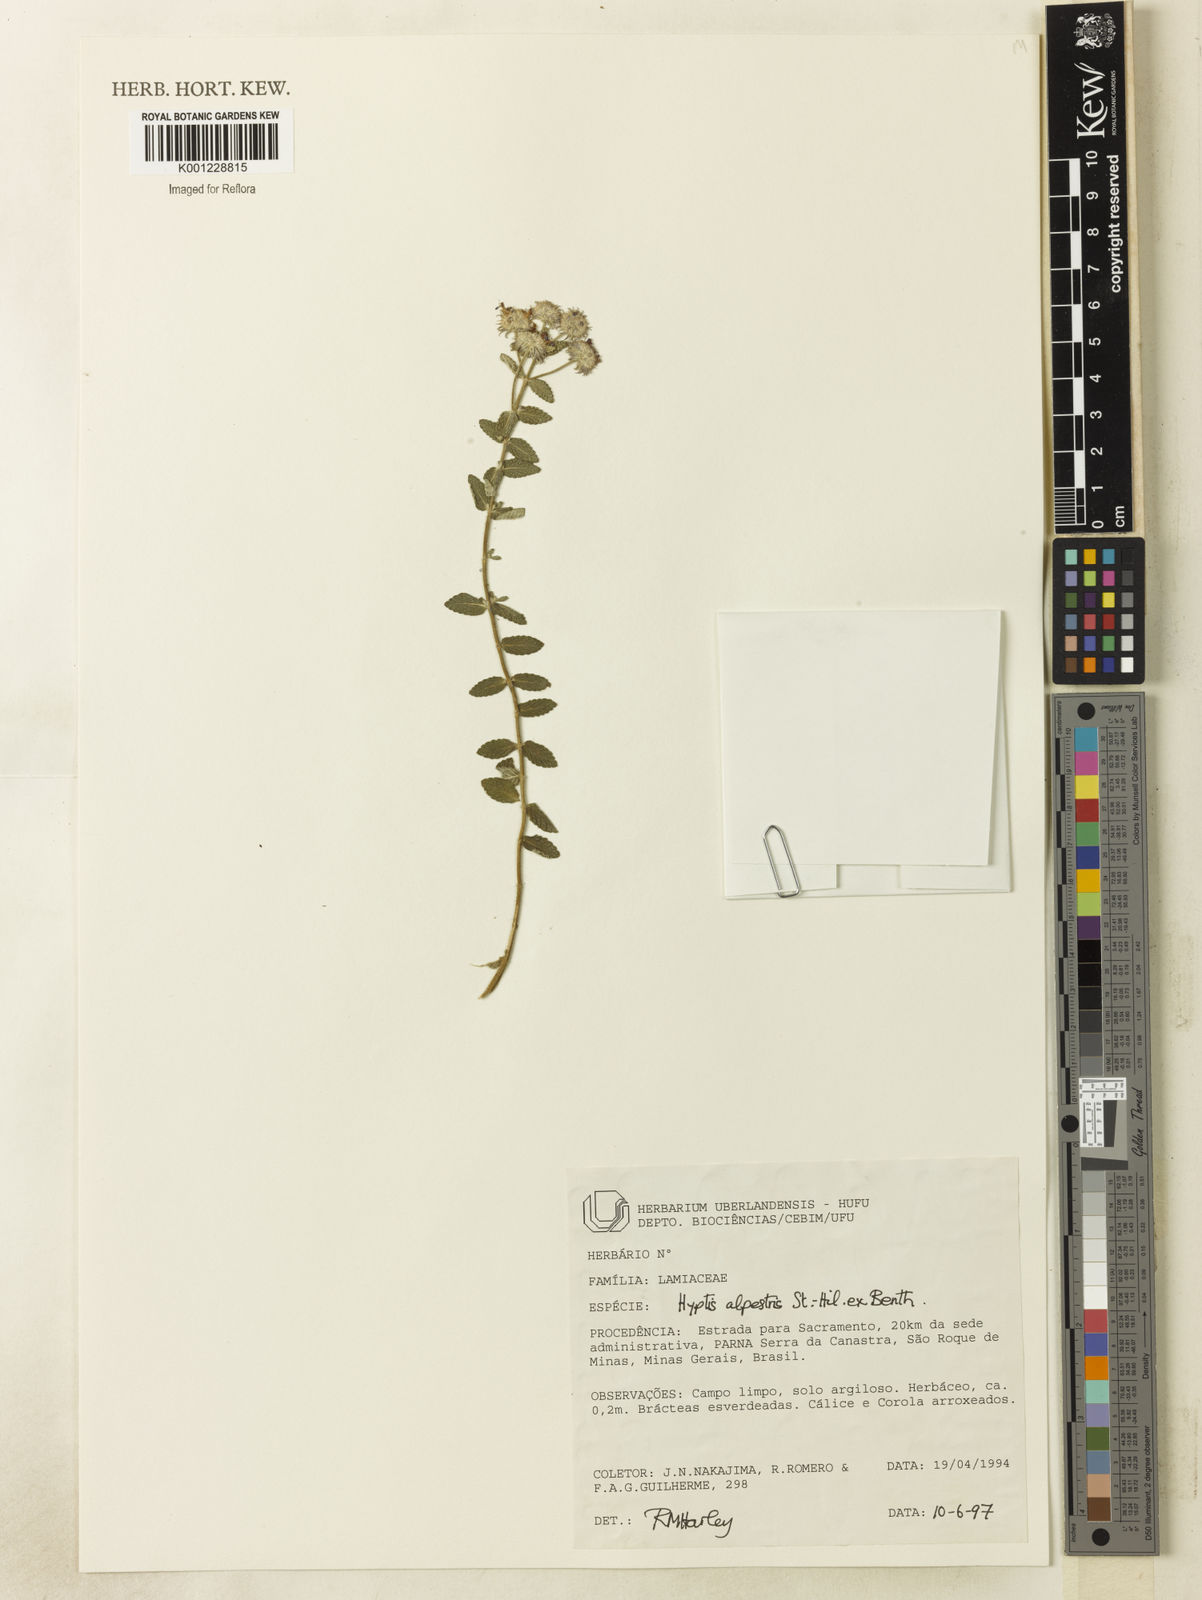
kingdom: Plantae
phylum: Tracheophyta
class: Magnoliopsida
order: Lamiales
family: Lamiaceae
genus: Hyptis
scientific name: Hyptis alpestris
